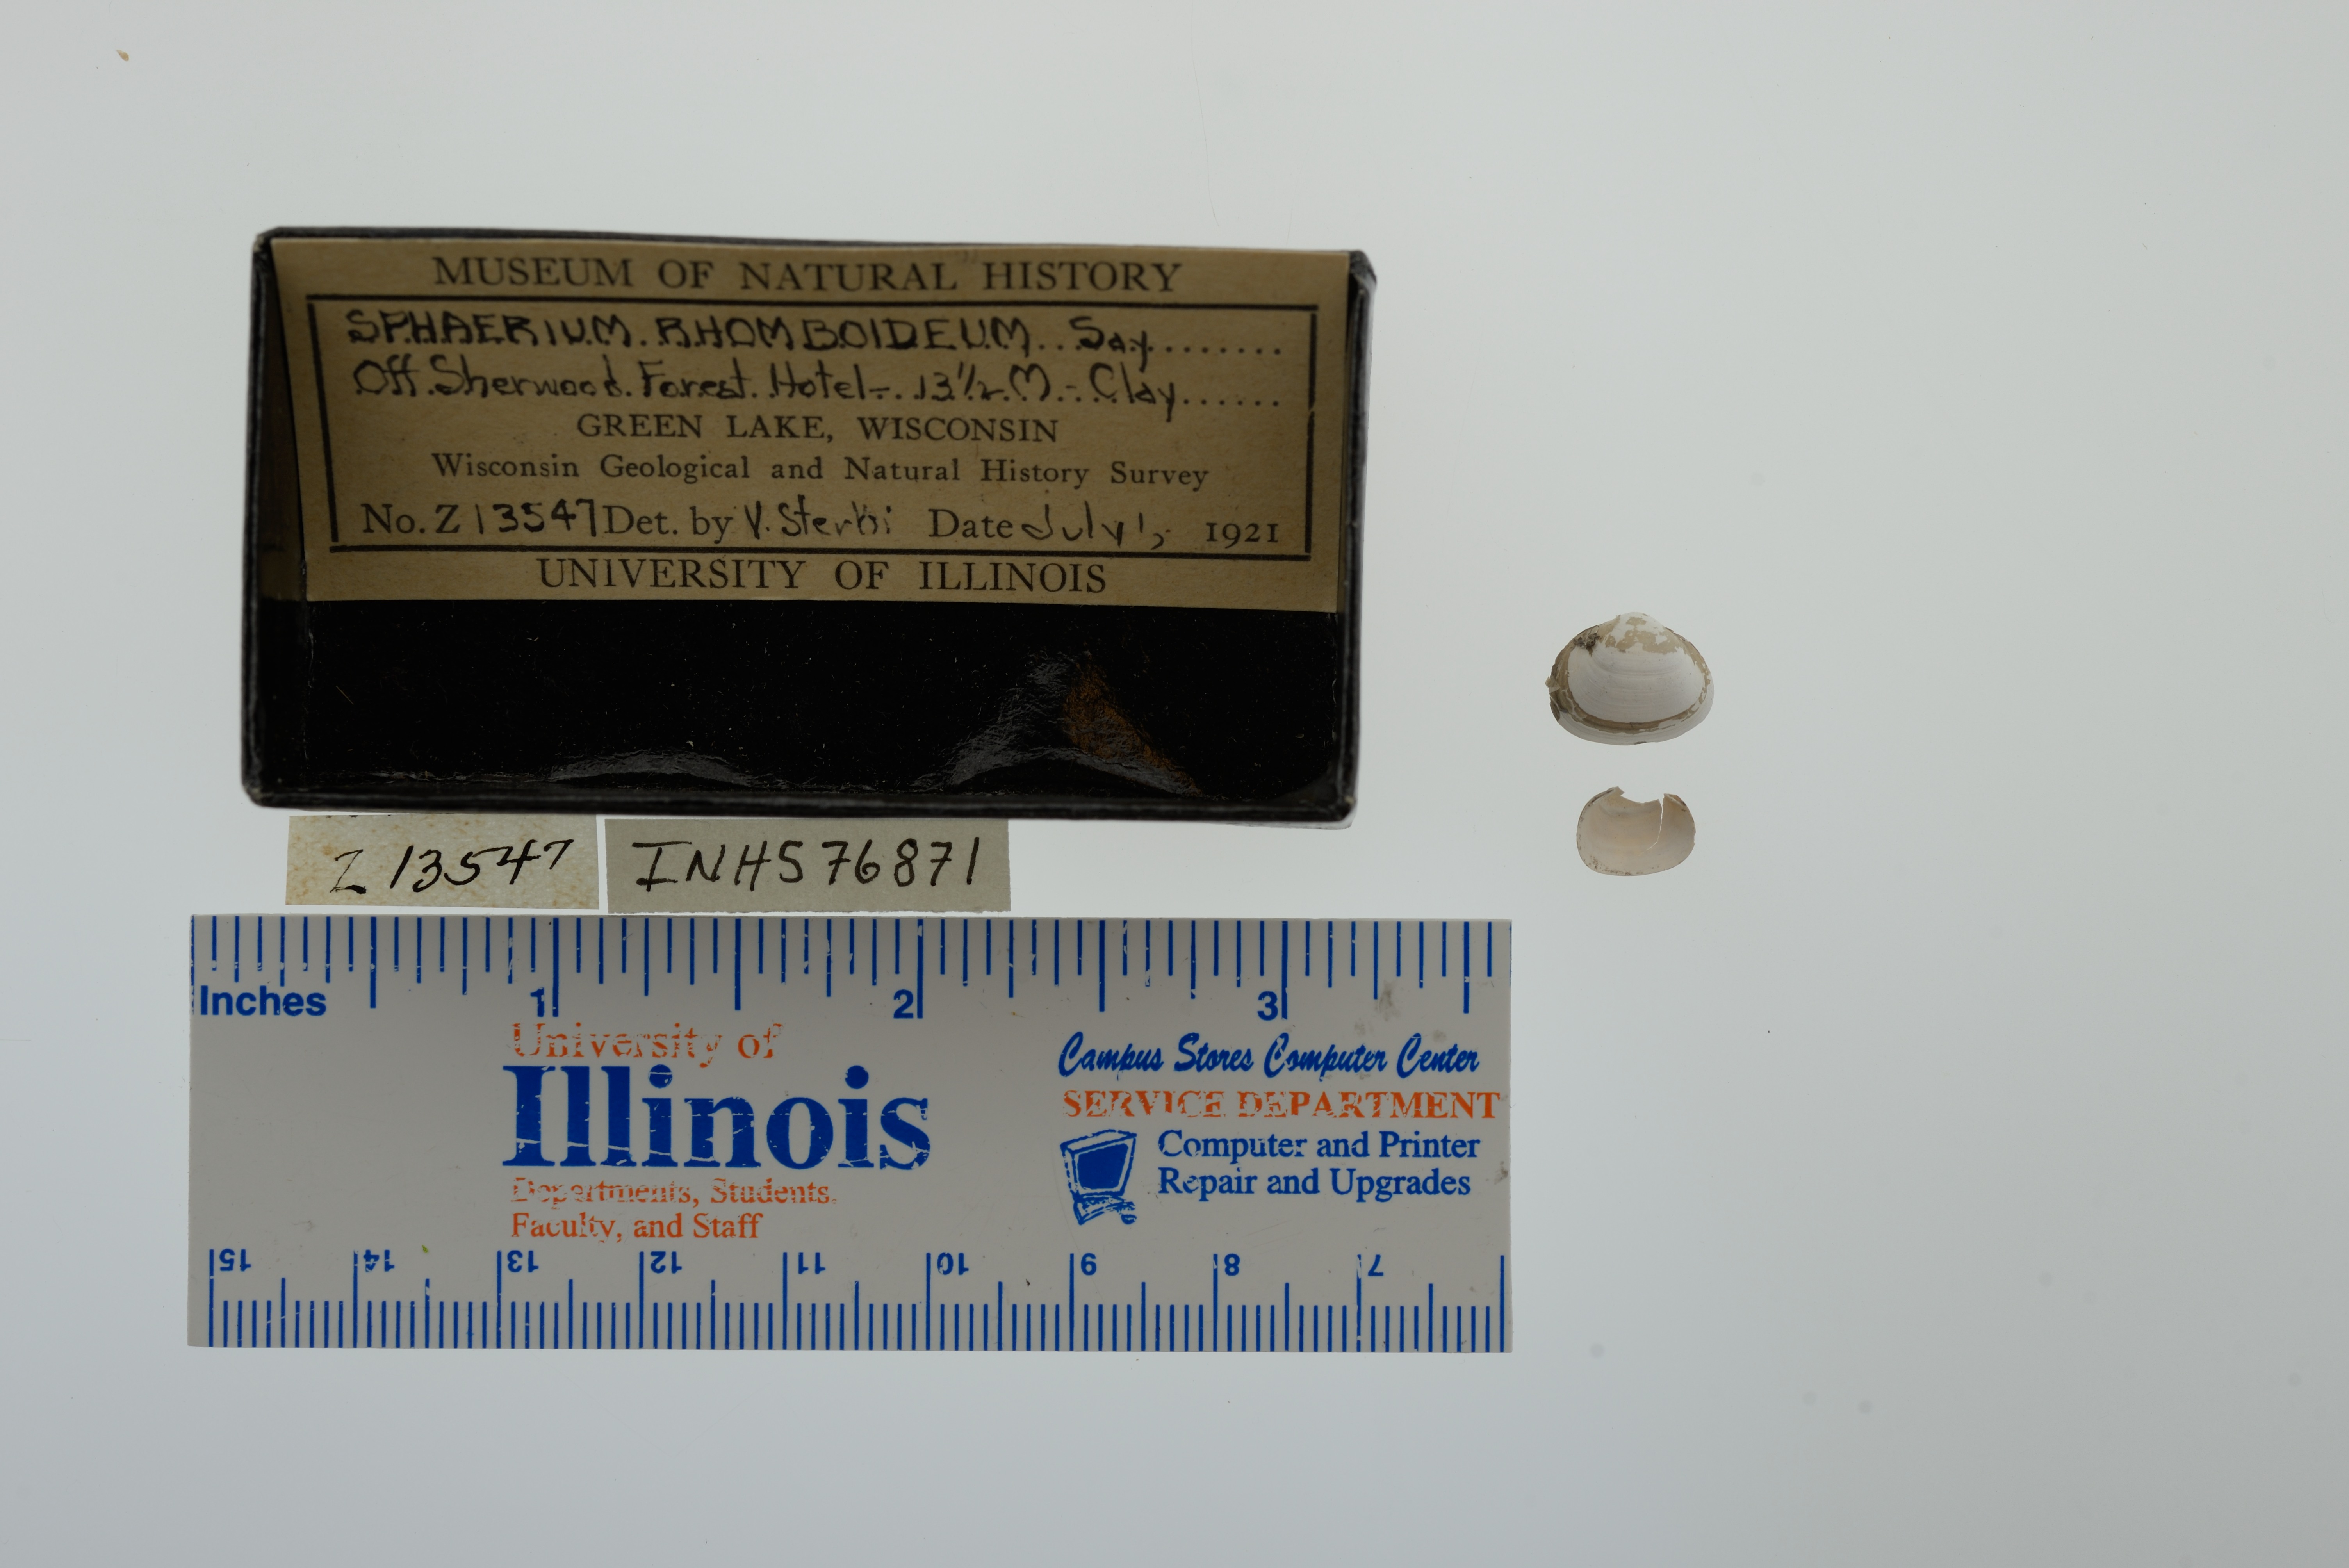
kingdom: Animalia
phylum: Mollusca
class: Bivalvia
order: Sphaeriida
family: Sphaeriidae
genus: Sphaerium
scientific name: Sphaerium rhomboideum
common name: Rhomboid fingernailclam
